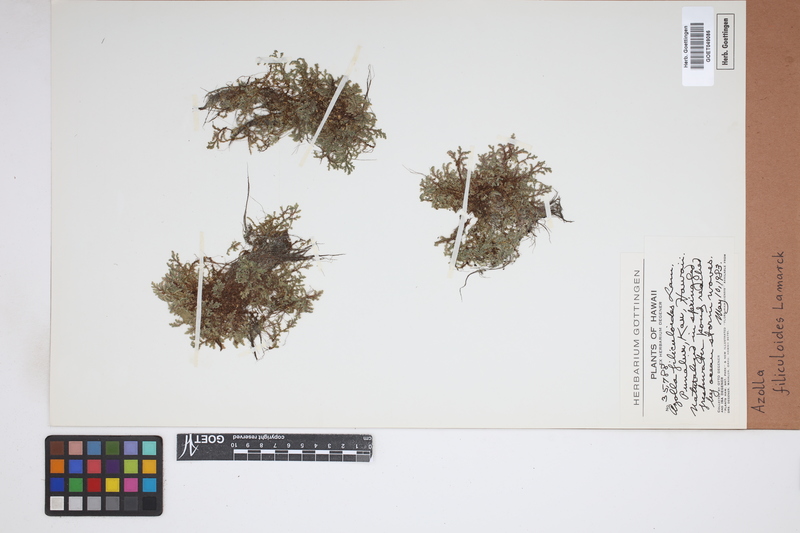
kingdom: Plantae
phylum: Tracheophyta
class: Polypodiopsida
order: Salviniales
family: Salviniaceae
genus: Azolla
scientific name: Azolla filiculoides
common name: Water fern
